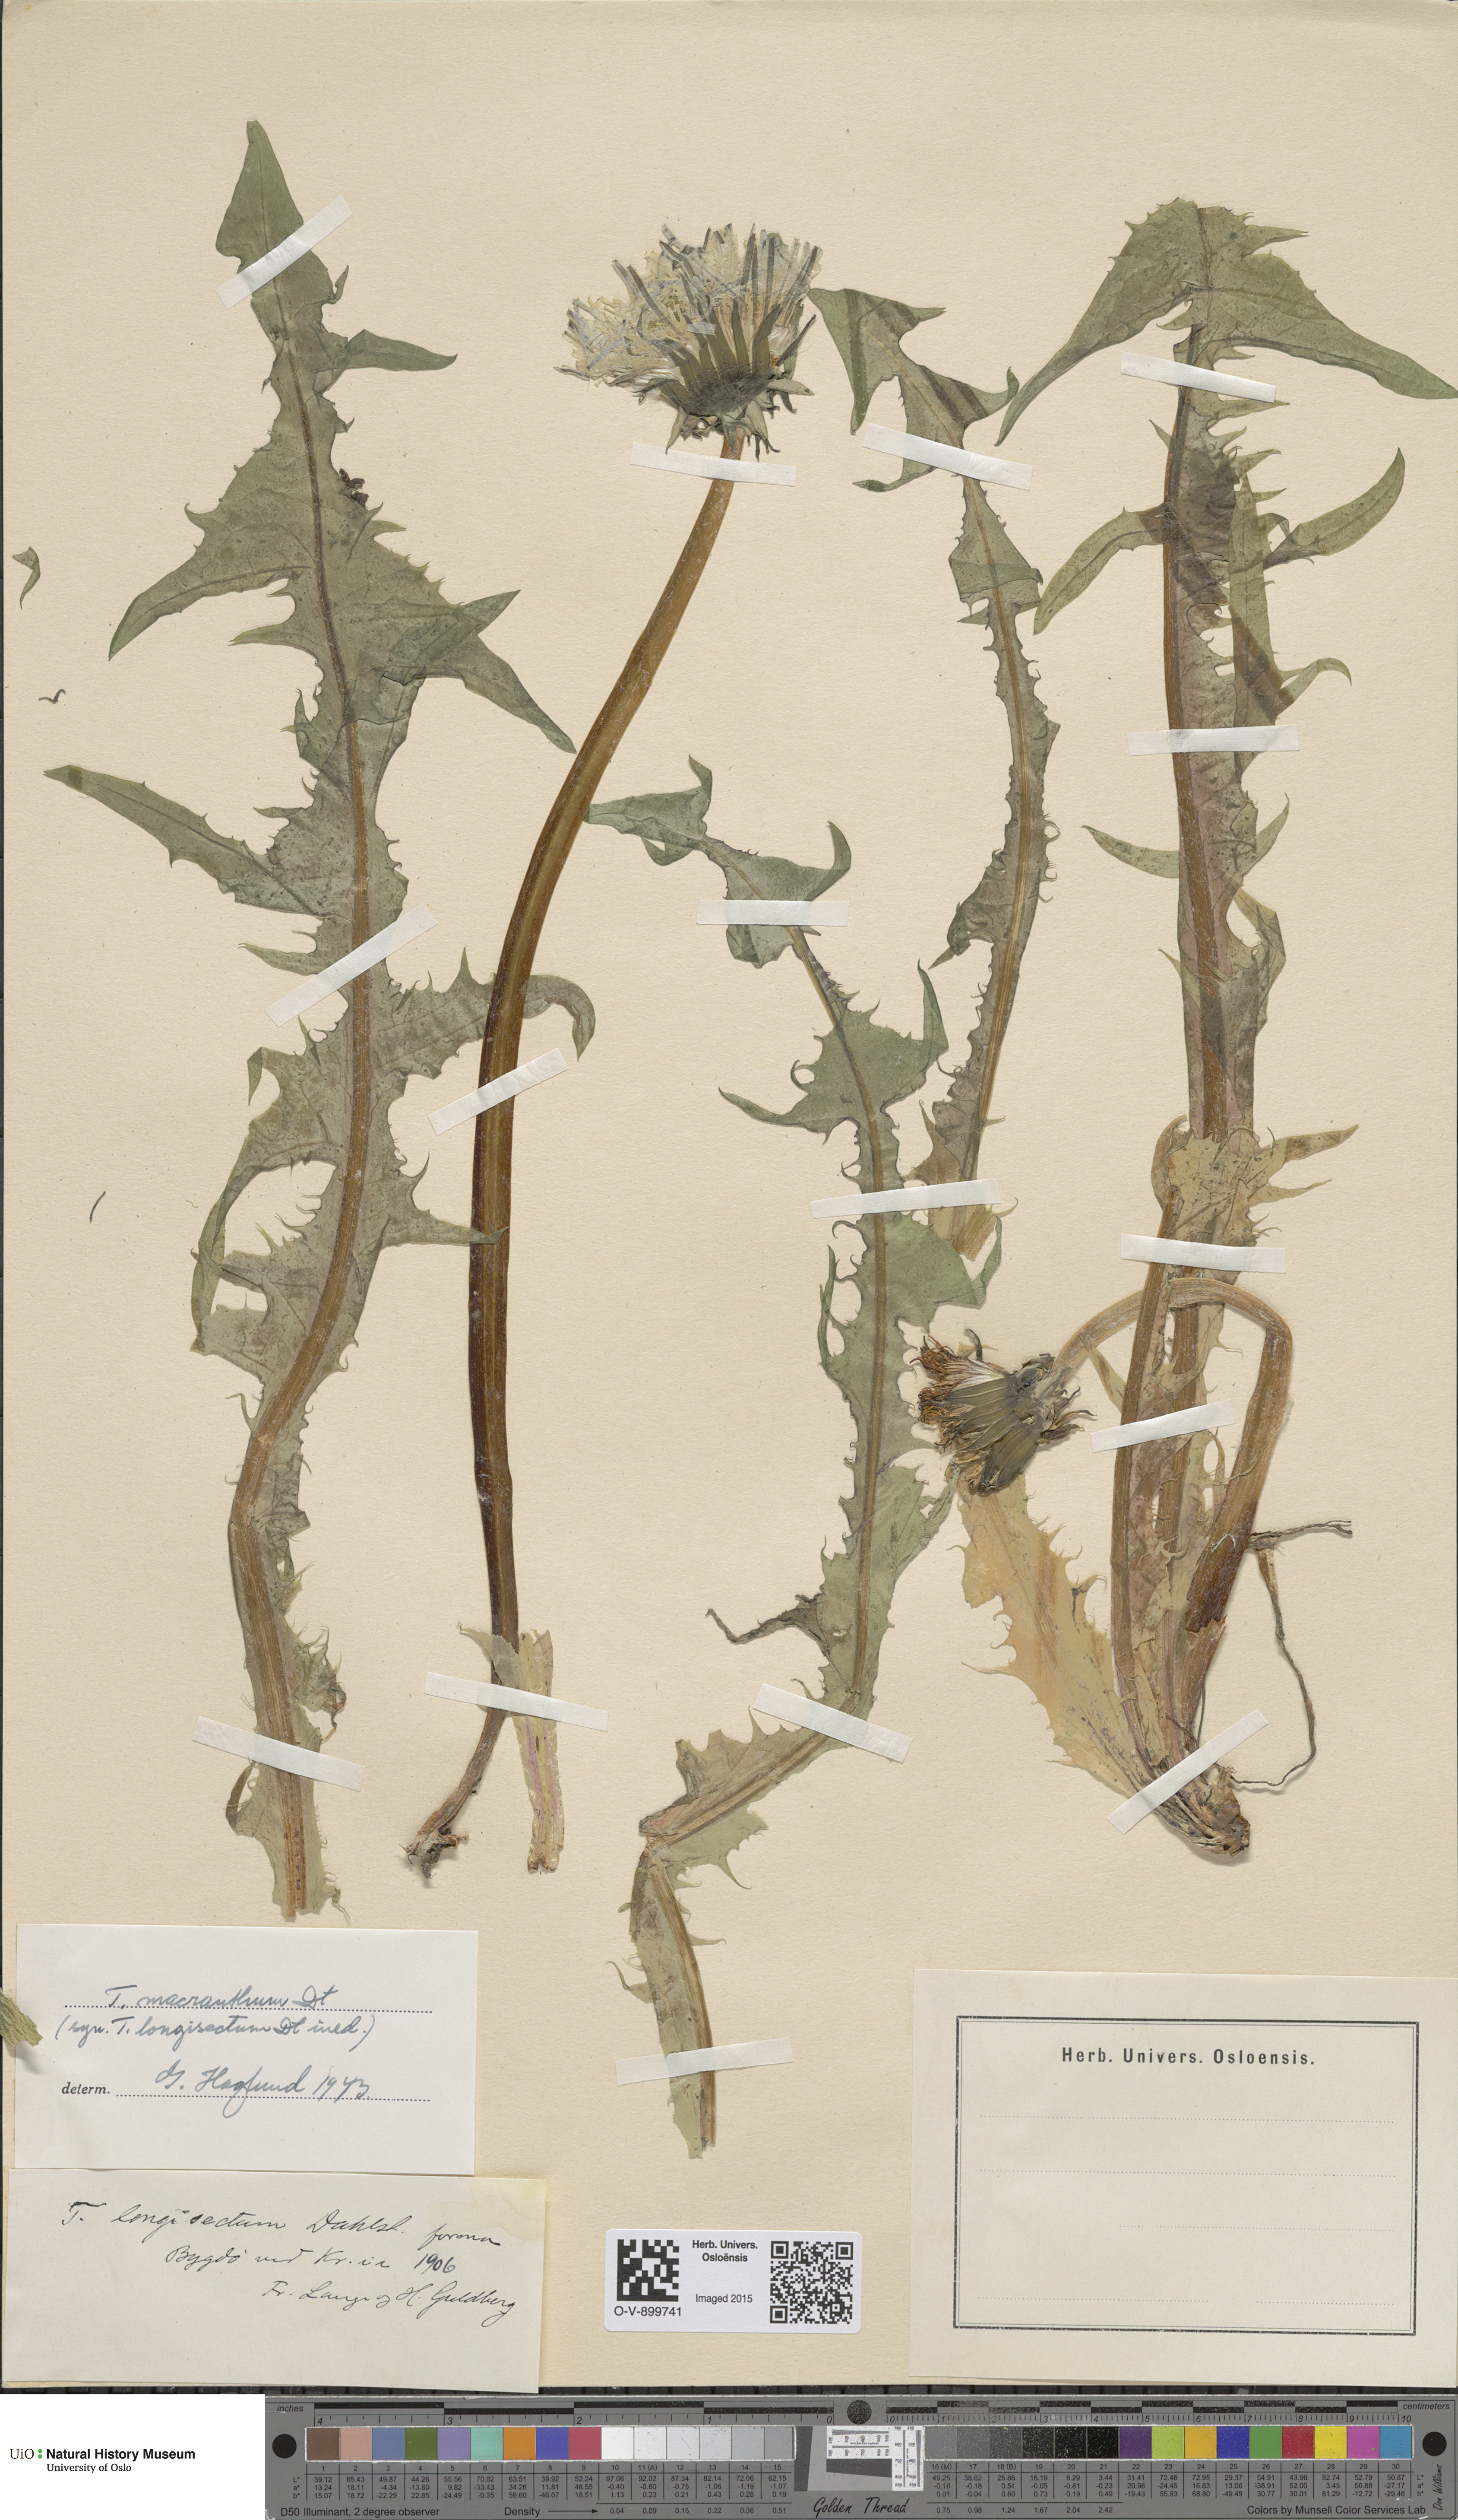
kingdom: Plantae
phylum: Tracheophyta
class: Magnoliopsida
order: Asterales
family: Asteraceae
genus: Taraxacum
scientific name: Taraxacum praeradians
